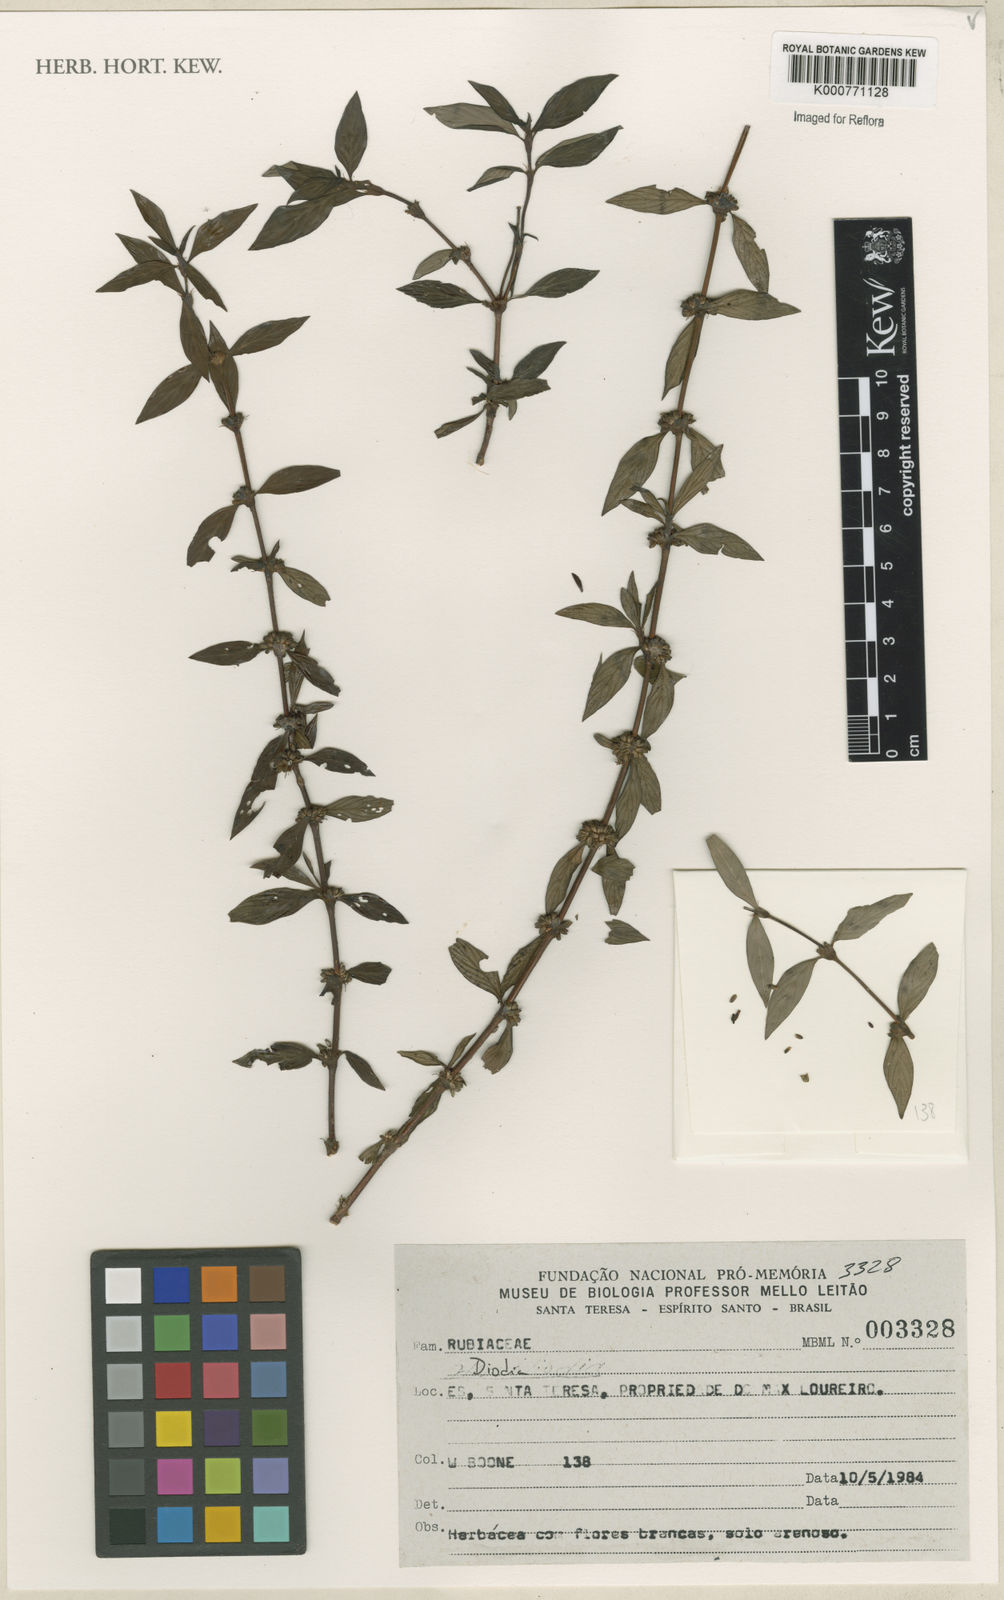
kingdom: Plantae
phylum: Tracheophyta
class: Magnoliopsida
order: Gentianales
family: Rubiaceae
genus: Diodia
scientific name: Diodia
